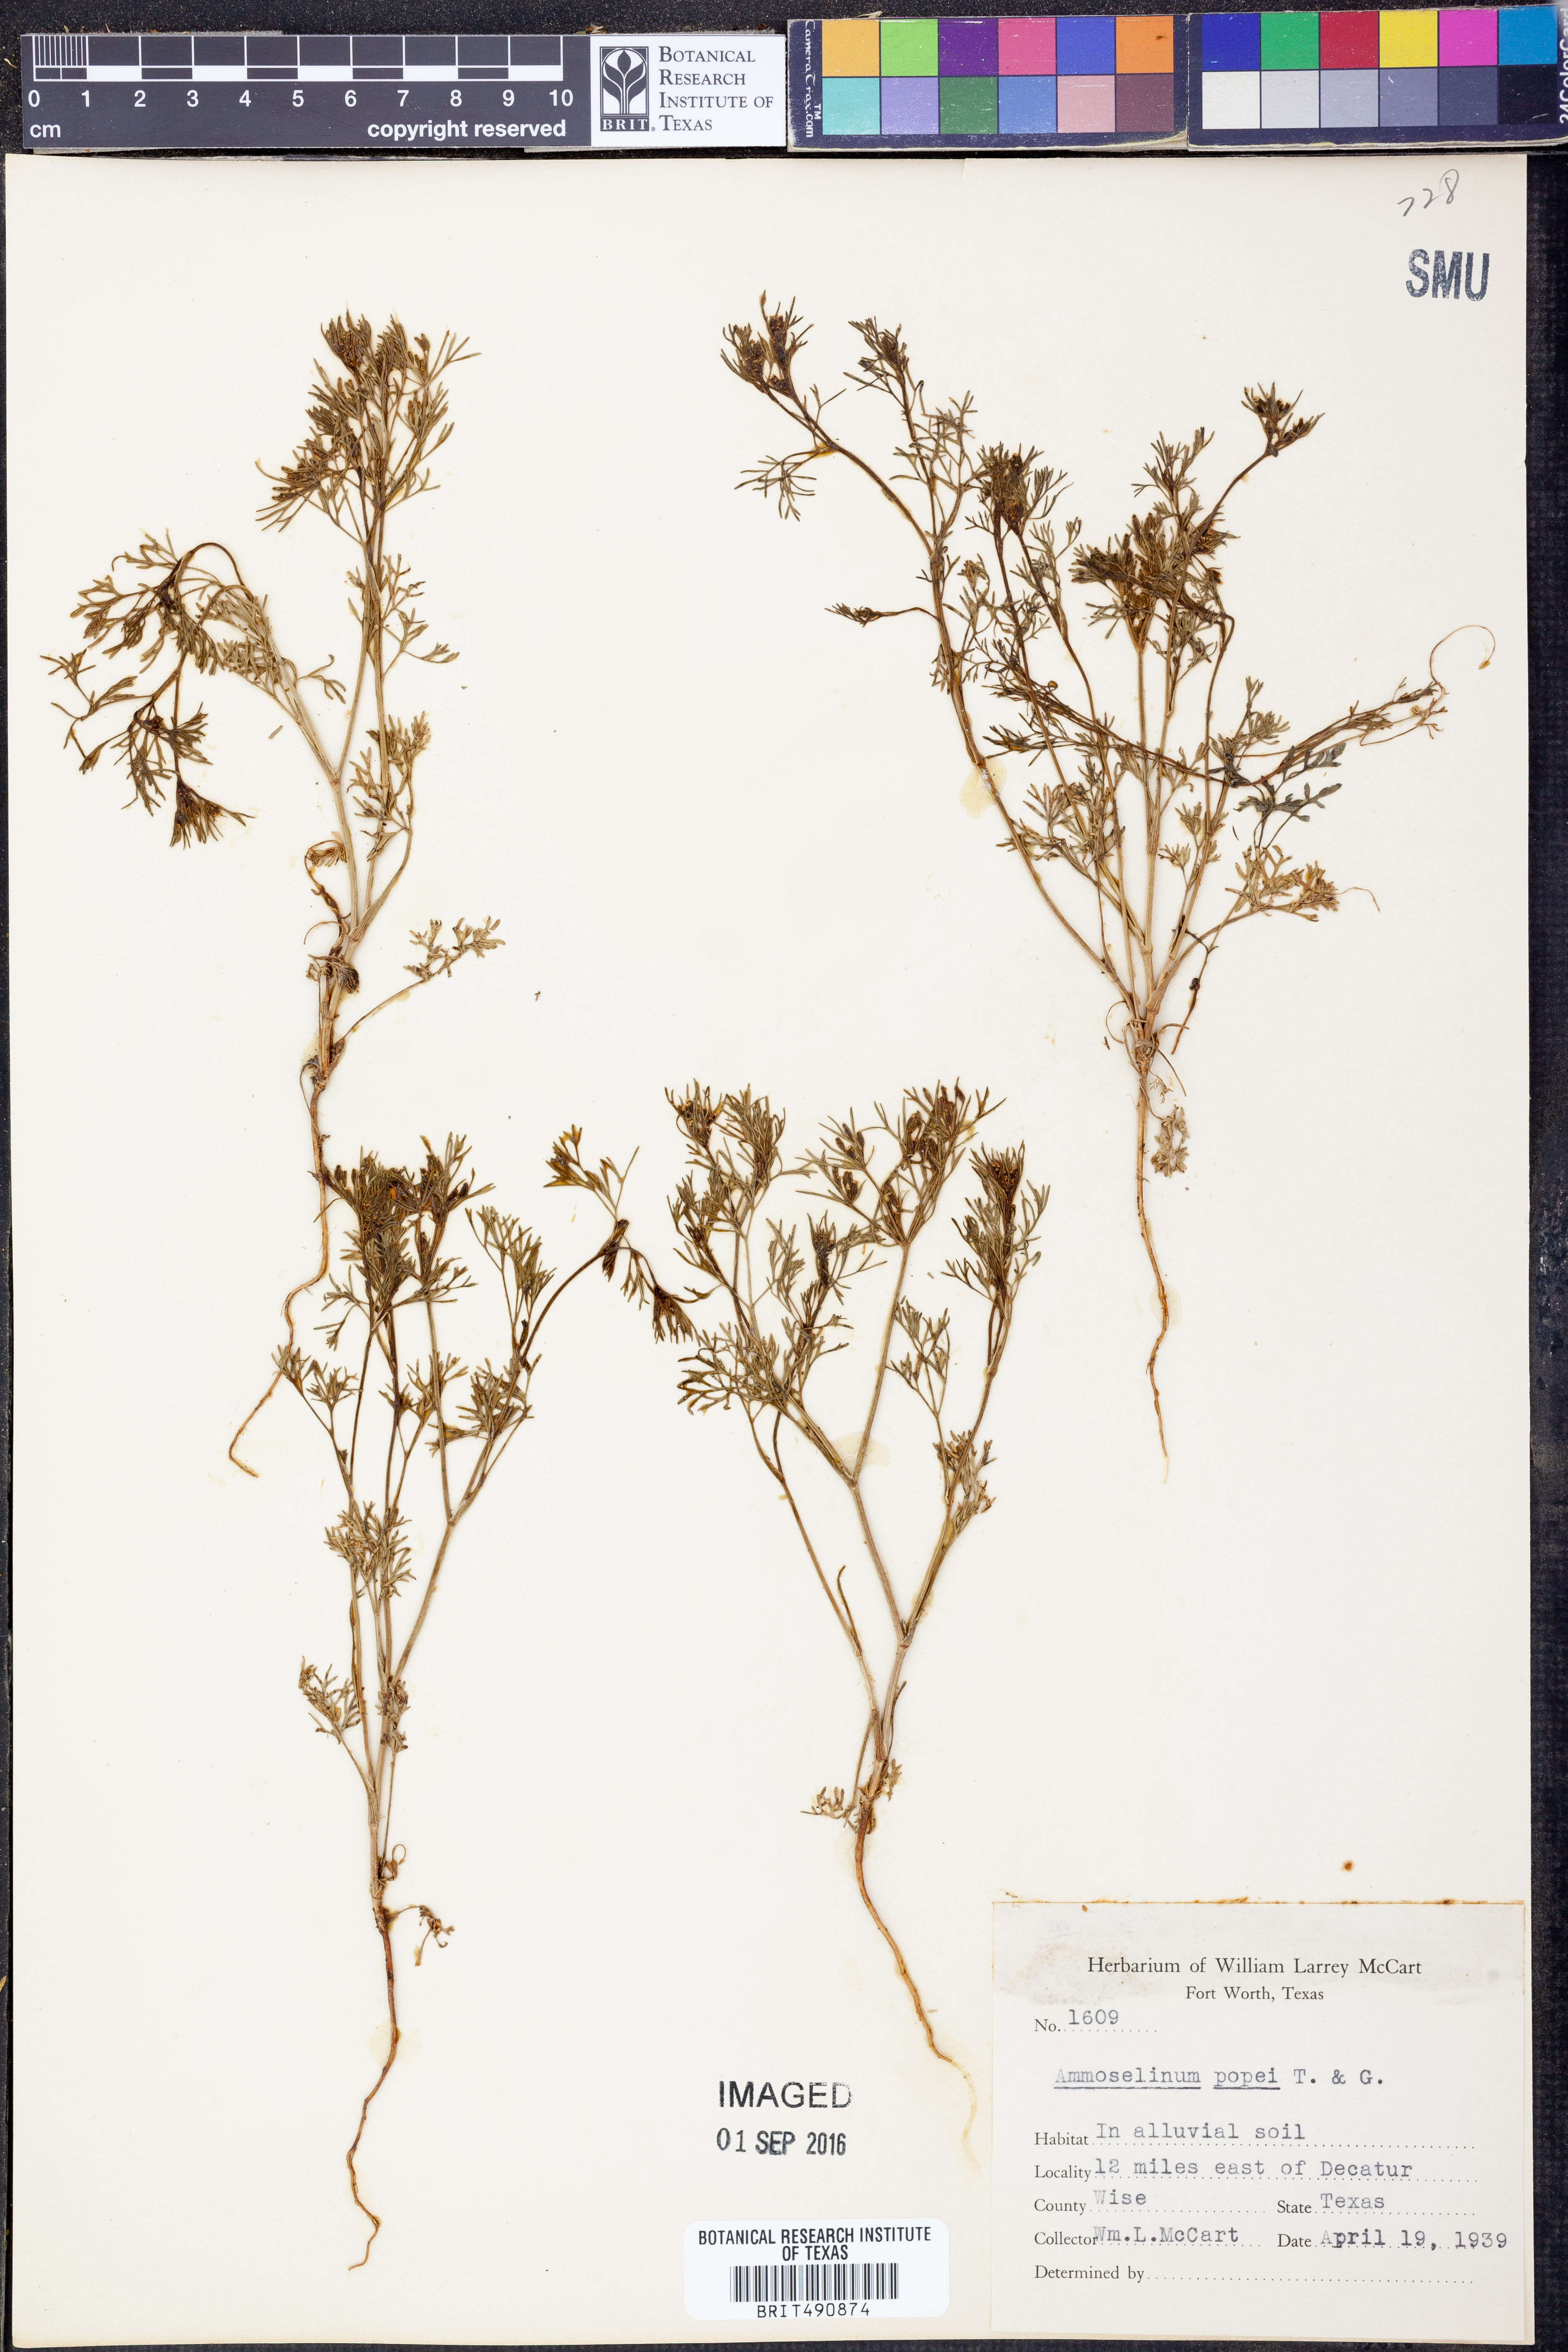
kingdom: Plantae
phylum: Tracheophyta
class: Magnoliopsida
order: Apiales
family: Apiaceae
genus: Ammoselinum
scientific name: Ammoselinum popei
